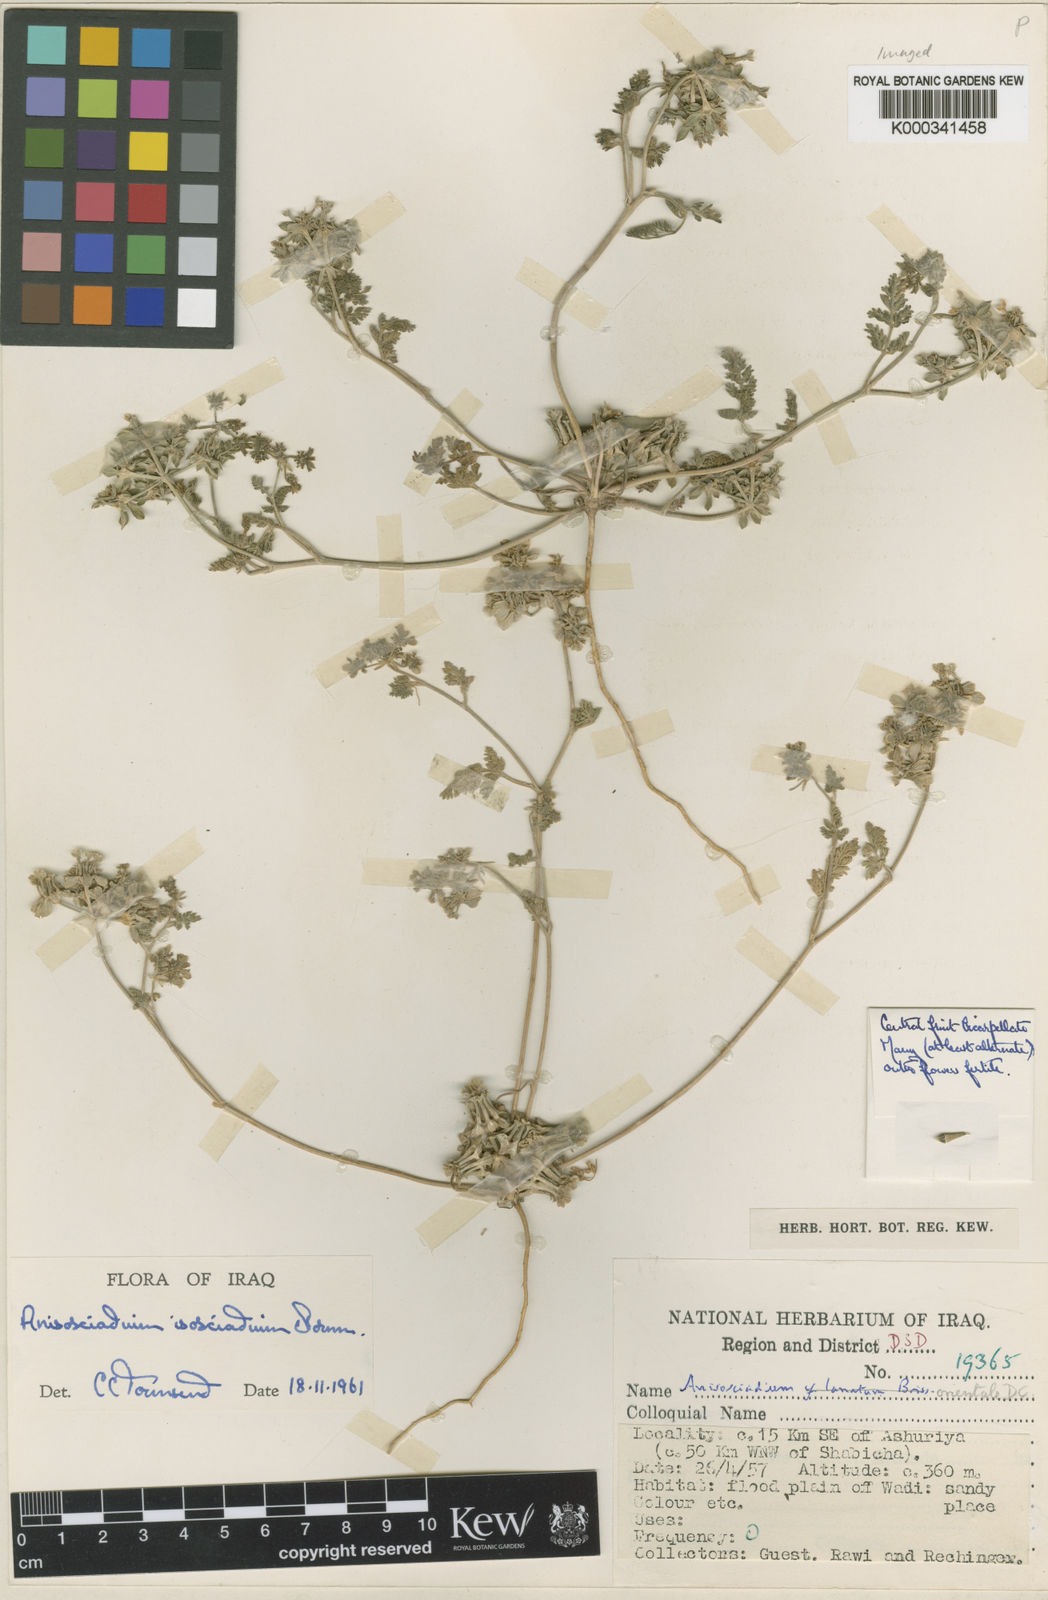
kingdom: Plantae
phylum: Tracheophyta
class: Magnoliopsida
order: Apiales
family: Apiaceae
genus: Anisosciadium
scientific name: Anisosciadium isosciadium
